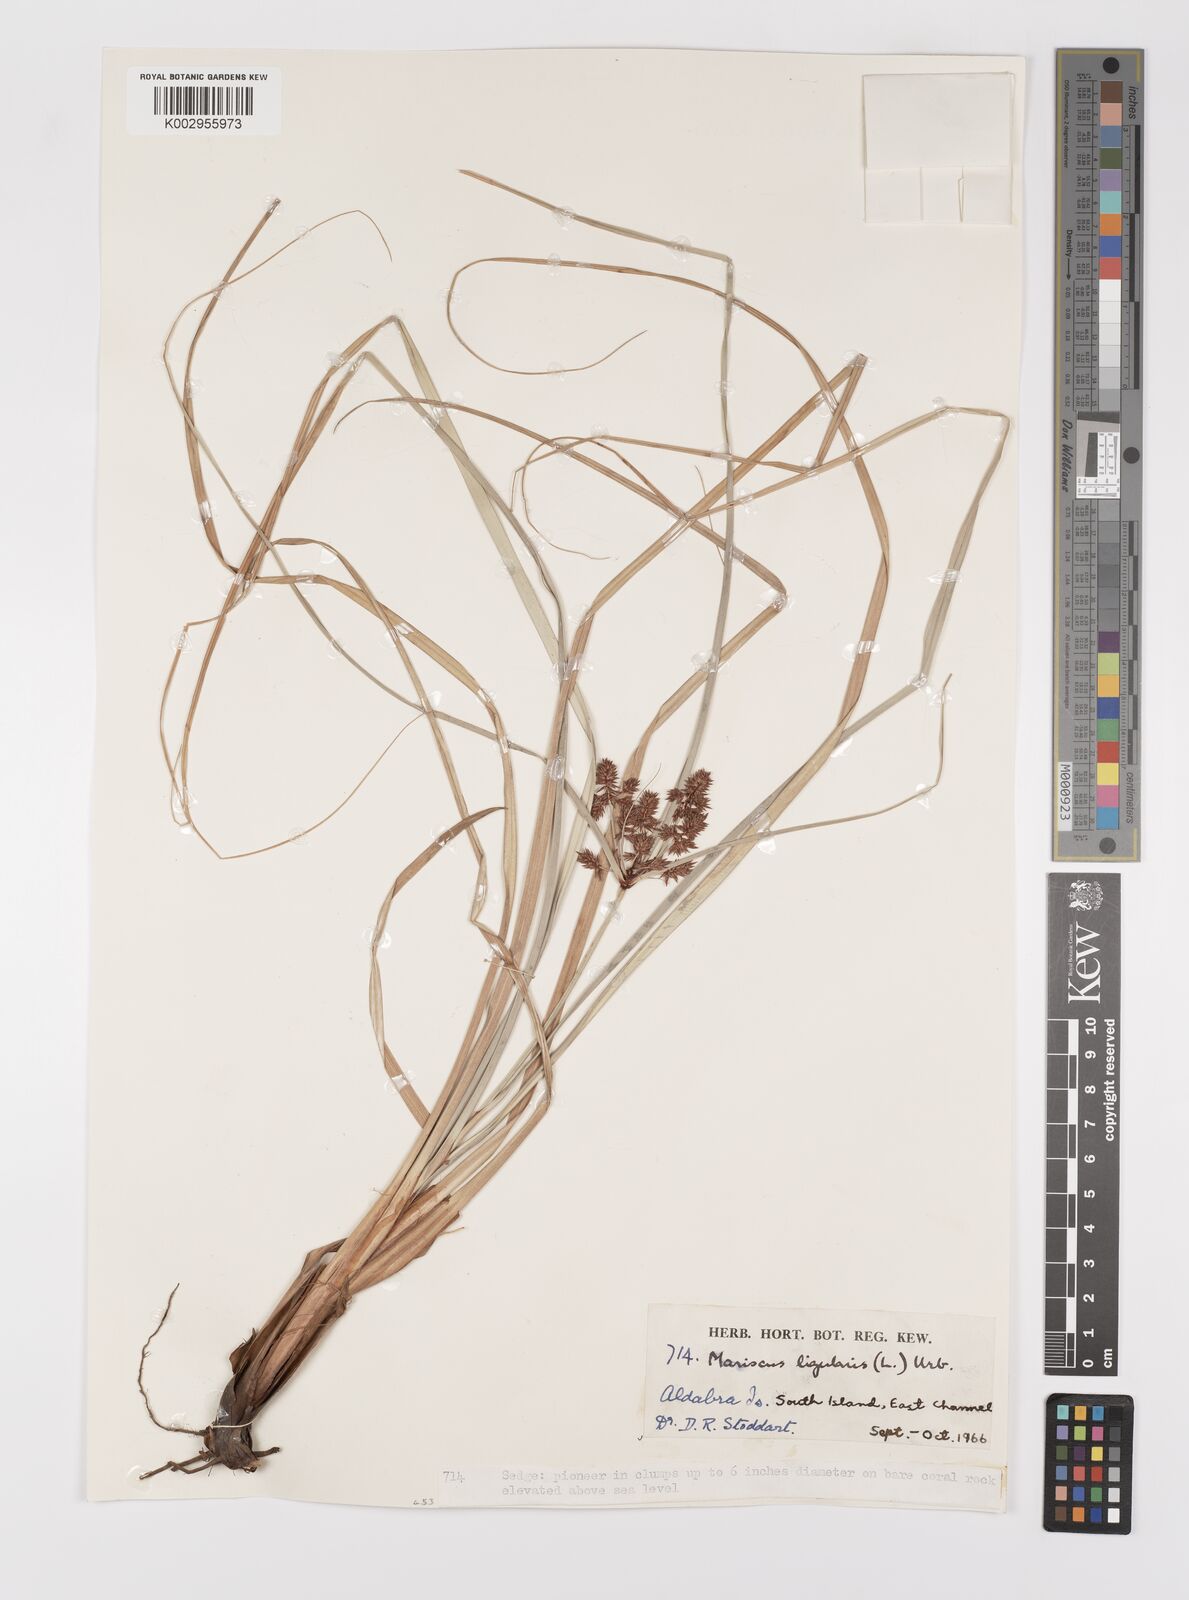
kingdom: Plantae
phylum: Tracheophyta
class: Liliopsida
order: Poales
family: Cyperaceae
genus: Cyperus
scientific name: Cyperus ligularis
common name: Swamp flat sedge
